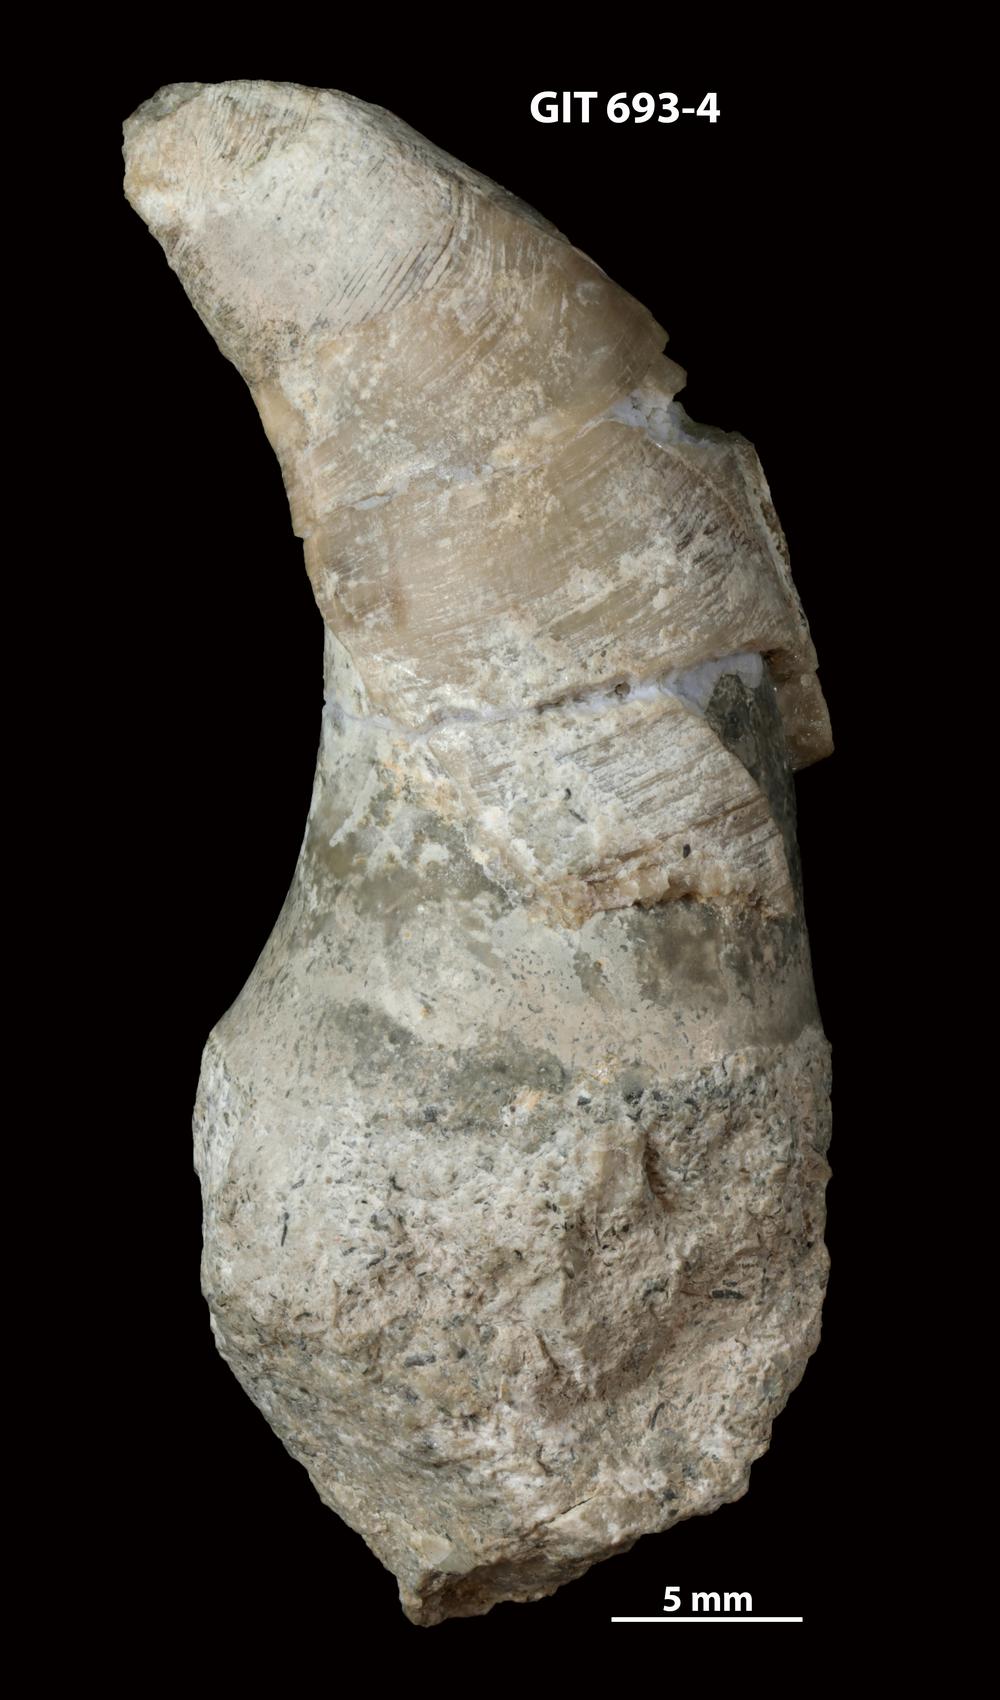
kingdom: Animalia
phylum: Mollusca
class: Gastropoda
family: Pollicinidae
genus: Pollicina
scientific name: Pollicina corniculum
